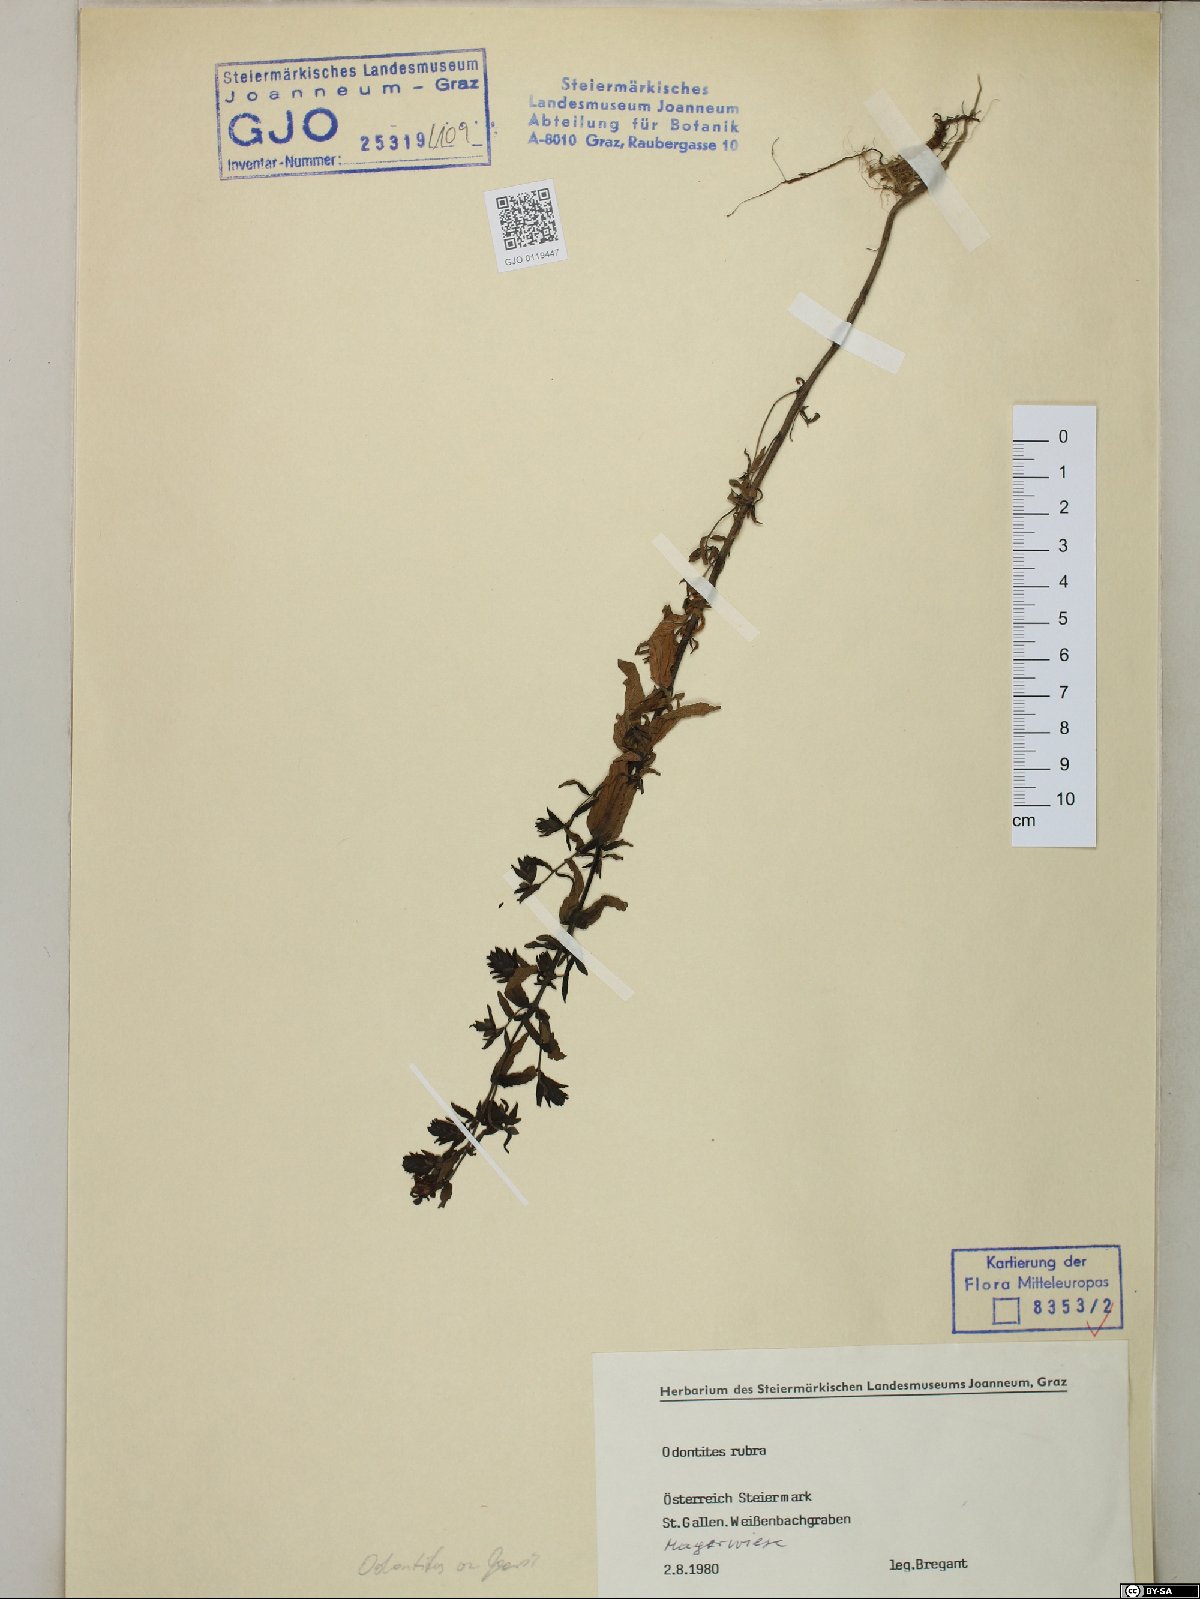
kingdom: Plantae
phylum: Tracheophyta
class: Magnoliopsida
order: Lamiales
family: Orobanchaceae
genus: Odontites
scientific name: Odontites vulgaris
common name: Broomrape
